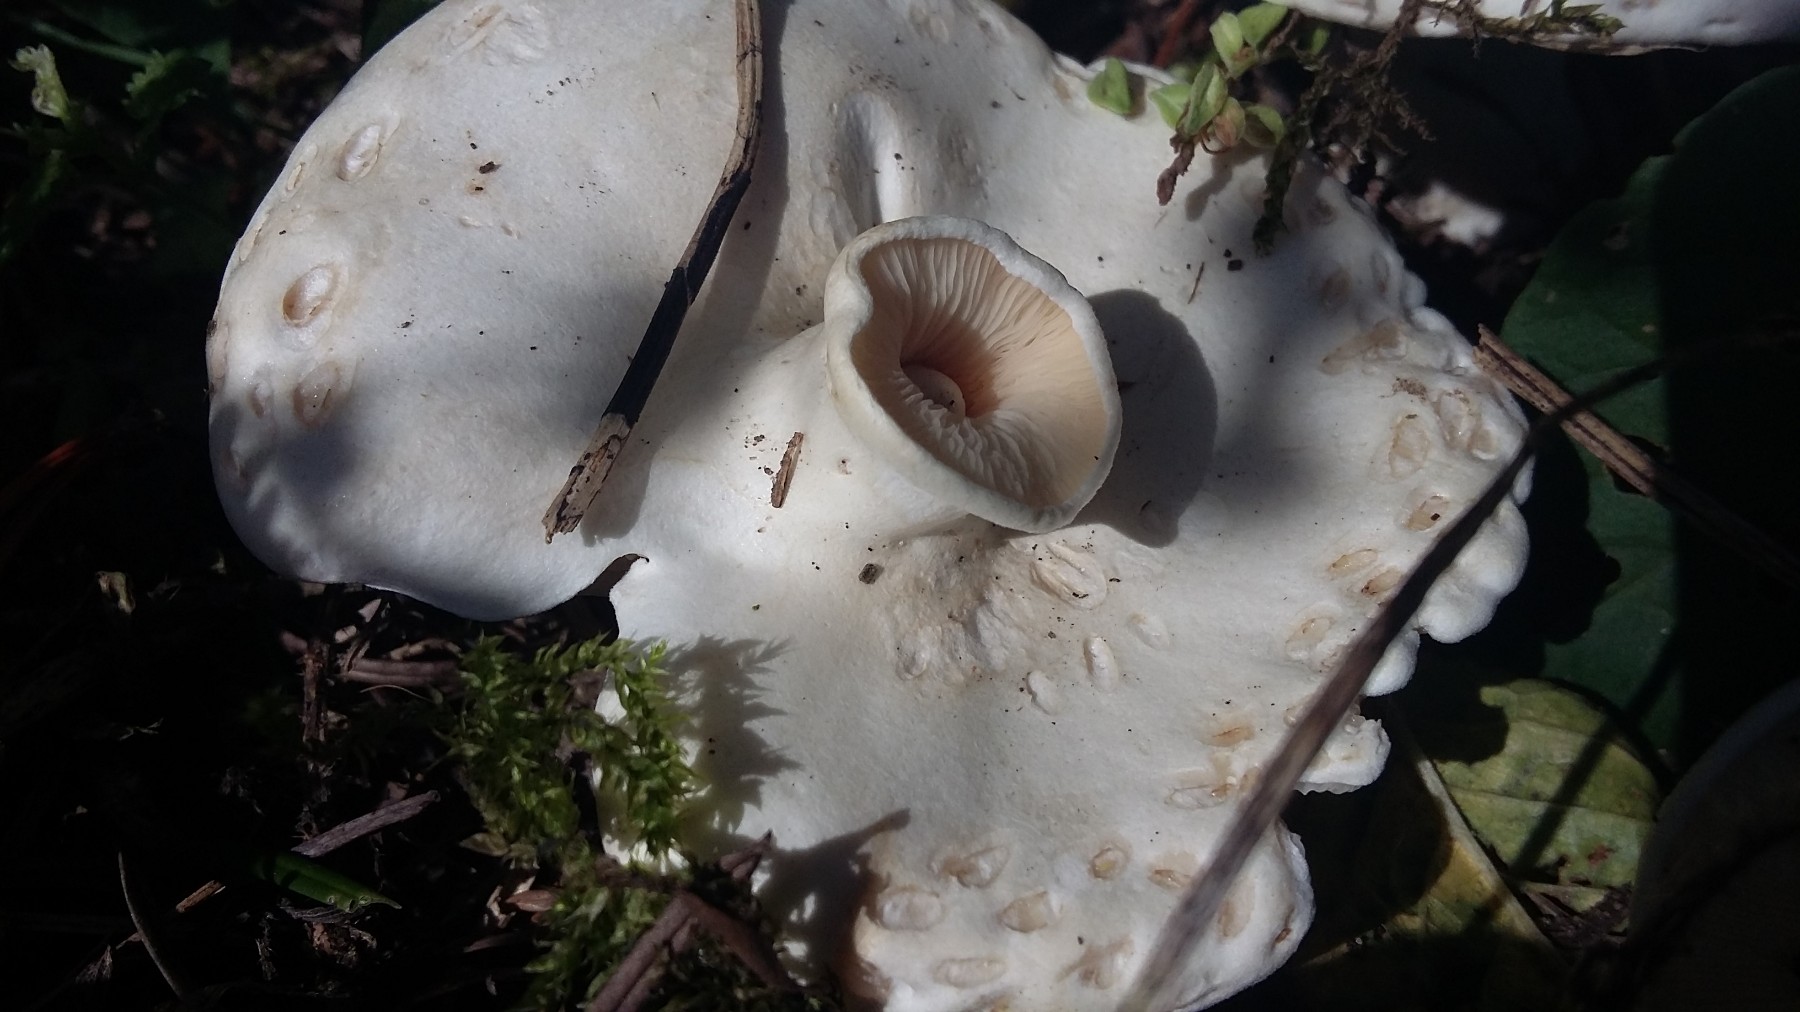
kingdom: Fungi
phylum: Basidiomycota
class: Agaricomycetes
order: Agaricales
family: Tricholomataceae
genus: Aspropaxillus
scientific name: Aspropaxillus giganteus
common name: kæmpe-tragtridderhat
